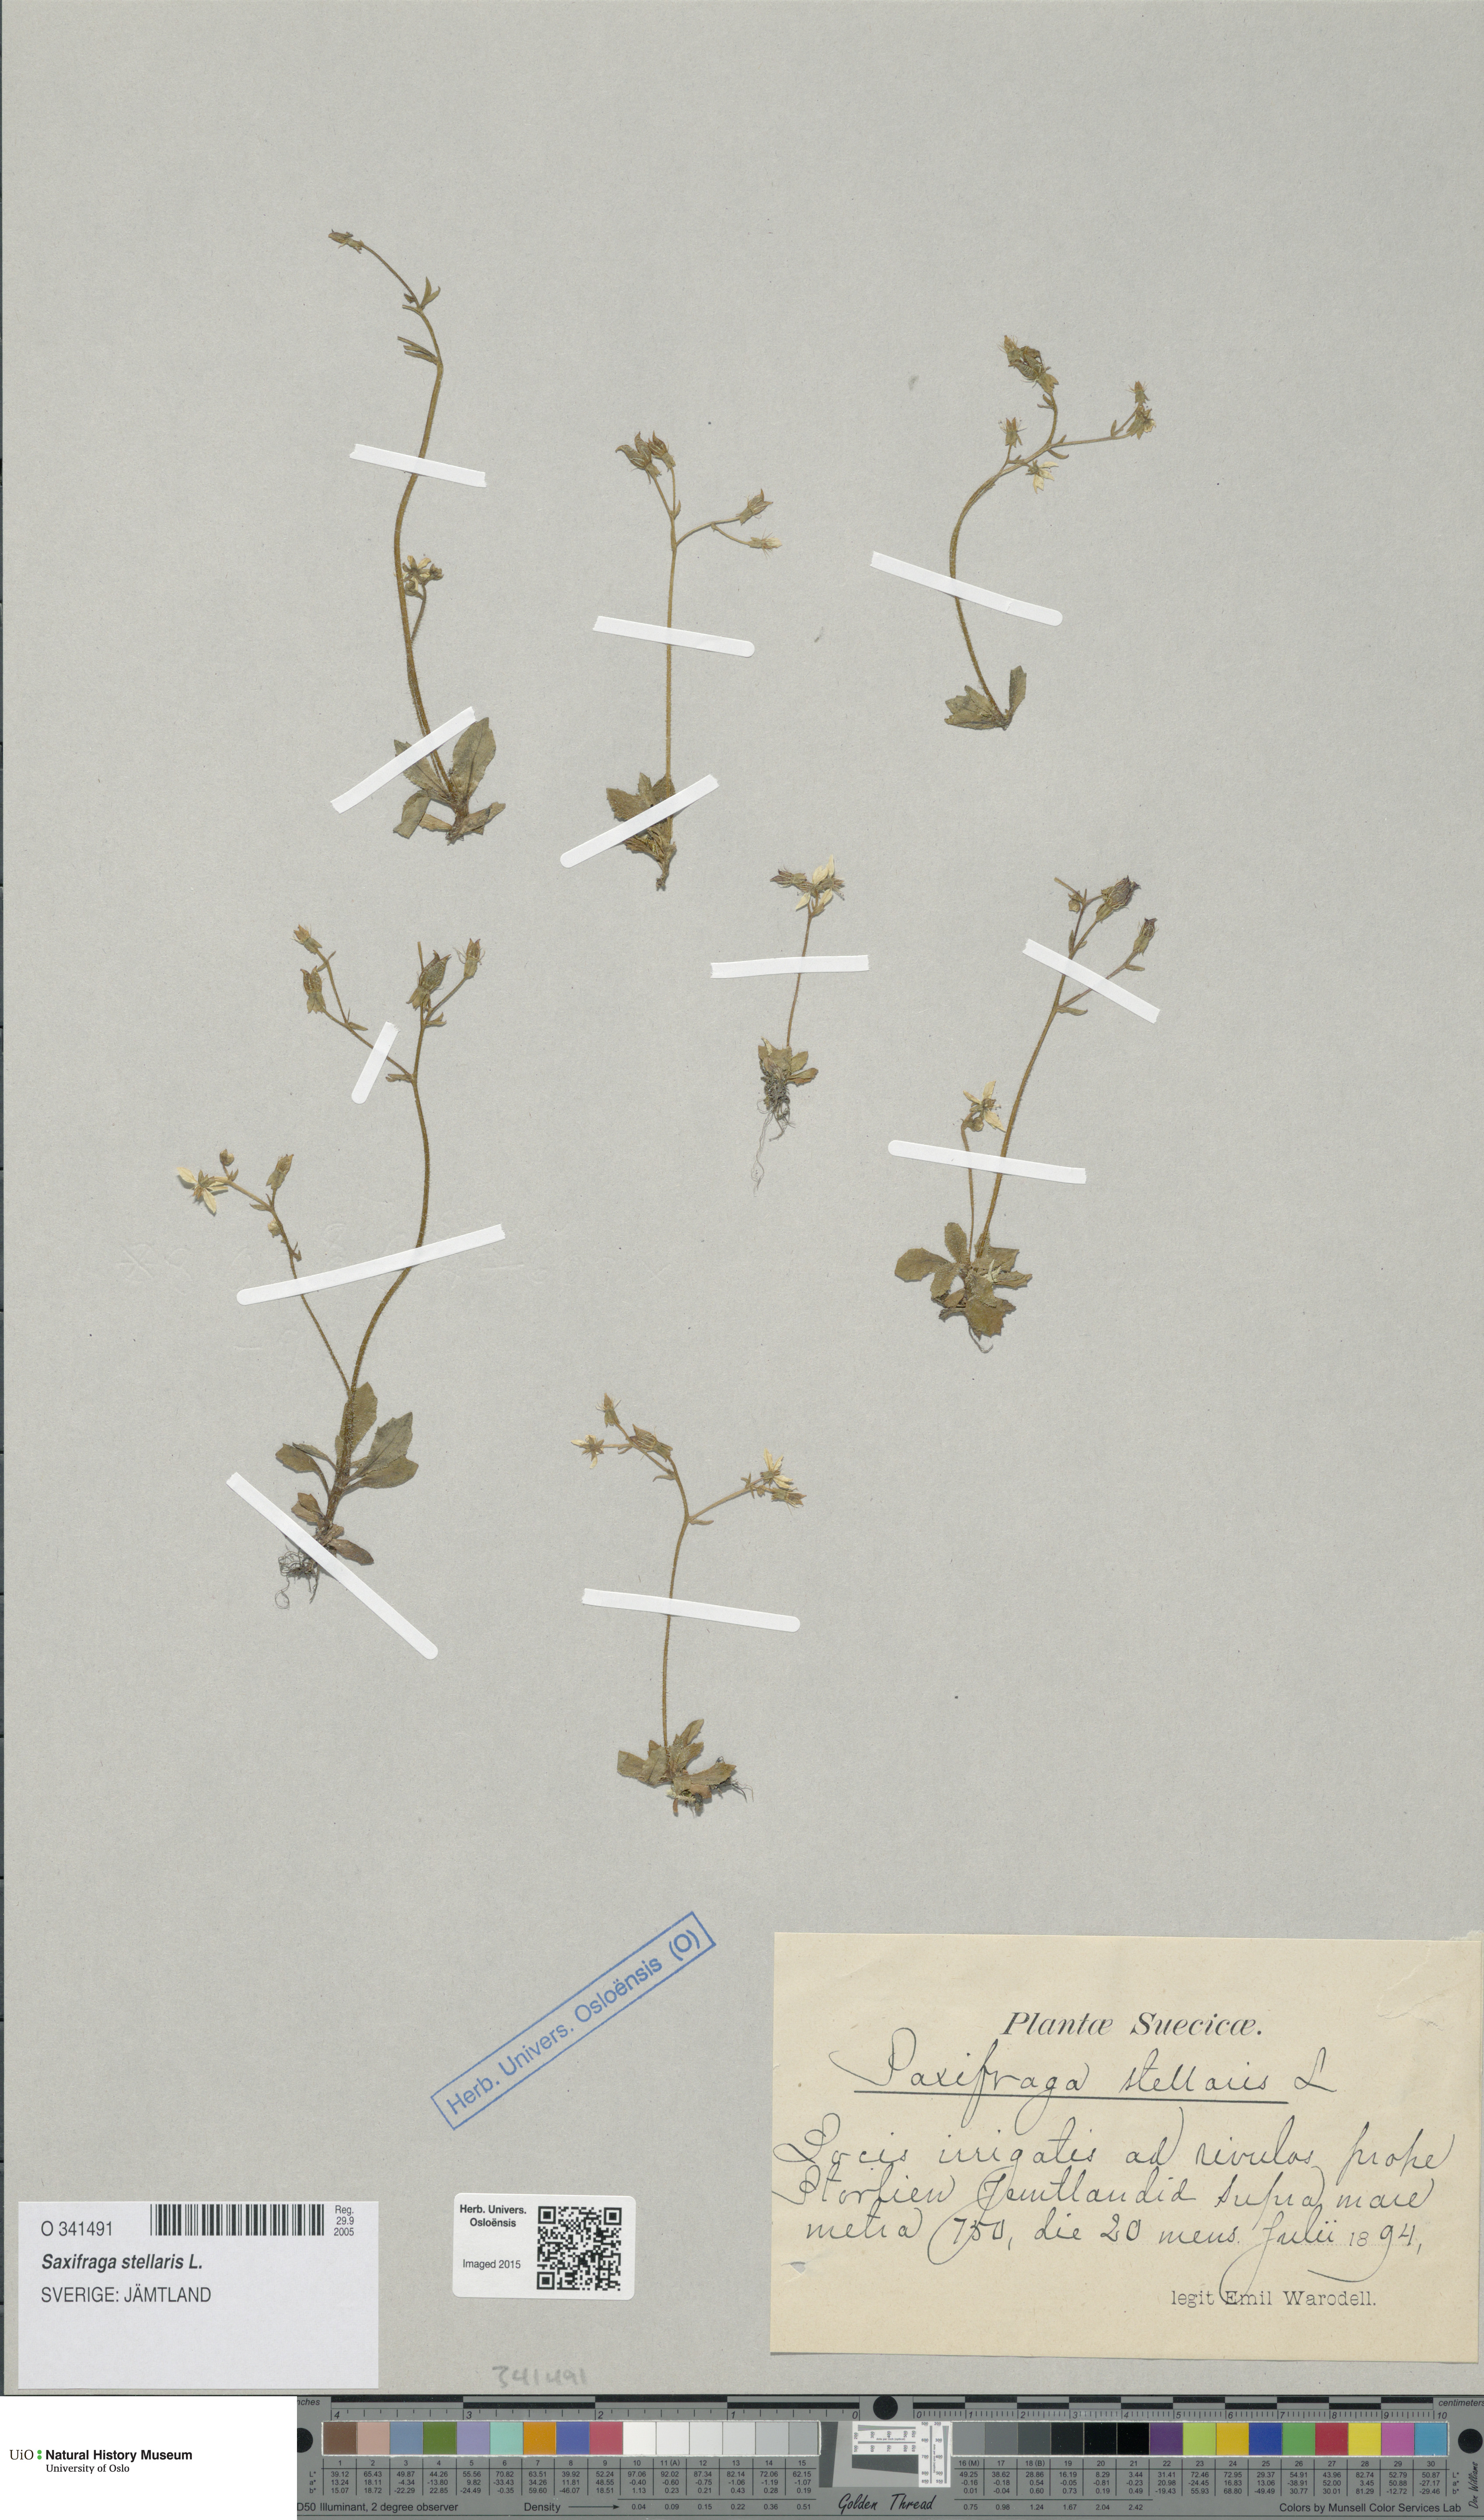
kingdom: Plantae
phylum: Tracheophyta
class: Magnoliopsida
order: Saxifragales
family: Saxifragaceae
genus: Micranthes
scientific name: Micranthes stellaris
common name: Starry saxifrage
